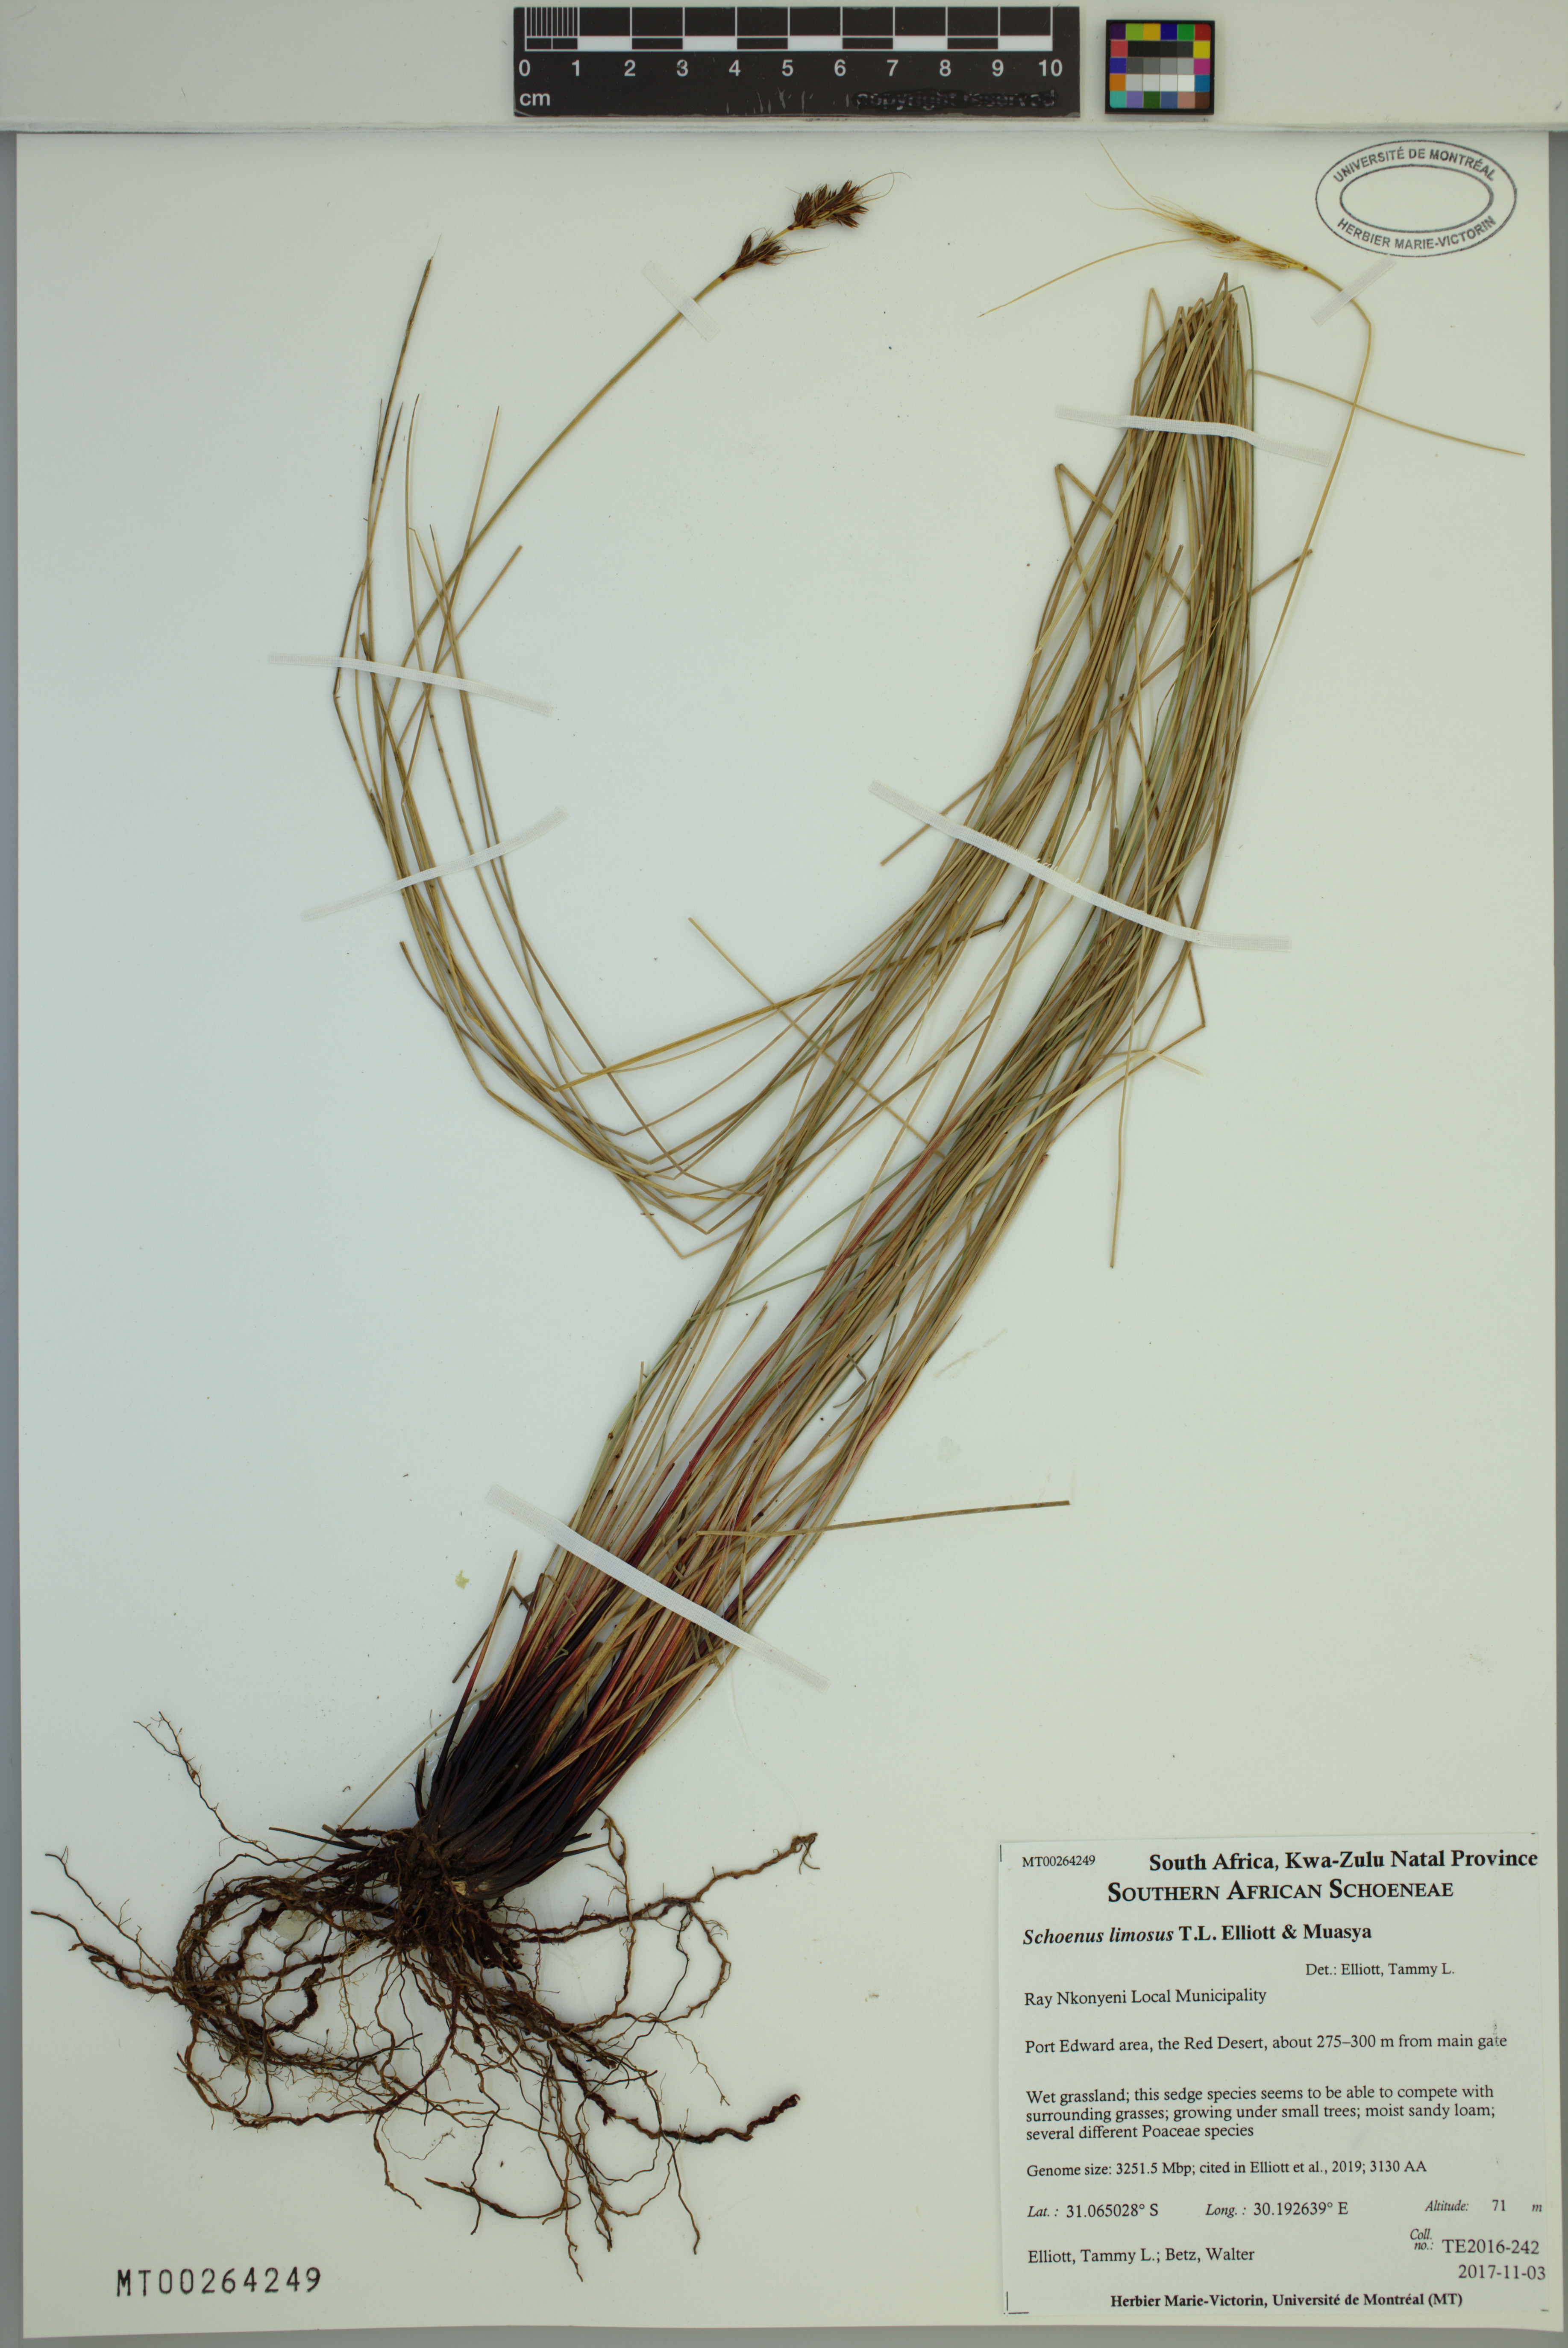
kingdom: Plantae
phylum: Tracheophyta
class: Liliopsida
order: Poales
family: Cyperaceae
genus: Schoenus
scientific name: Schoenus limosus
